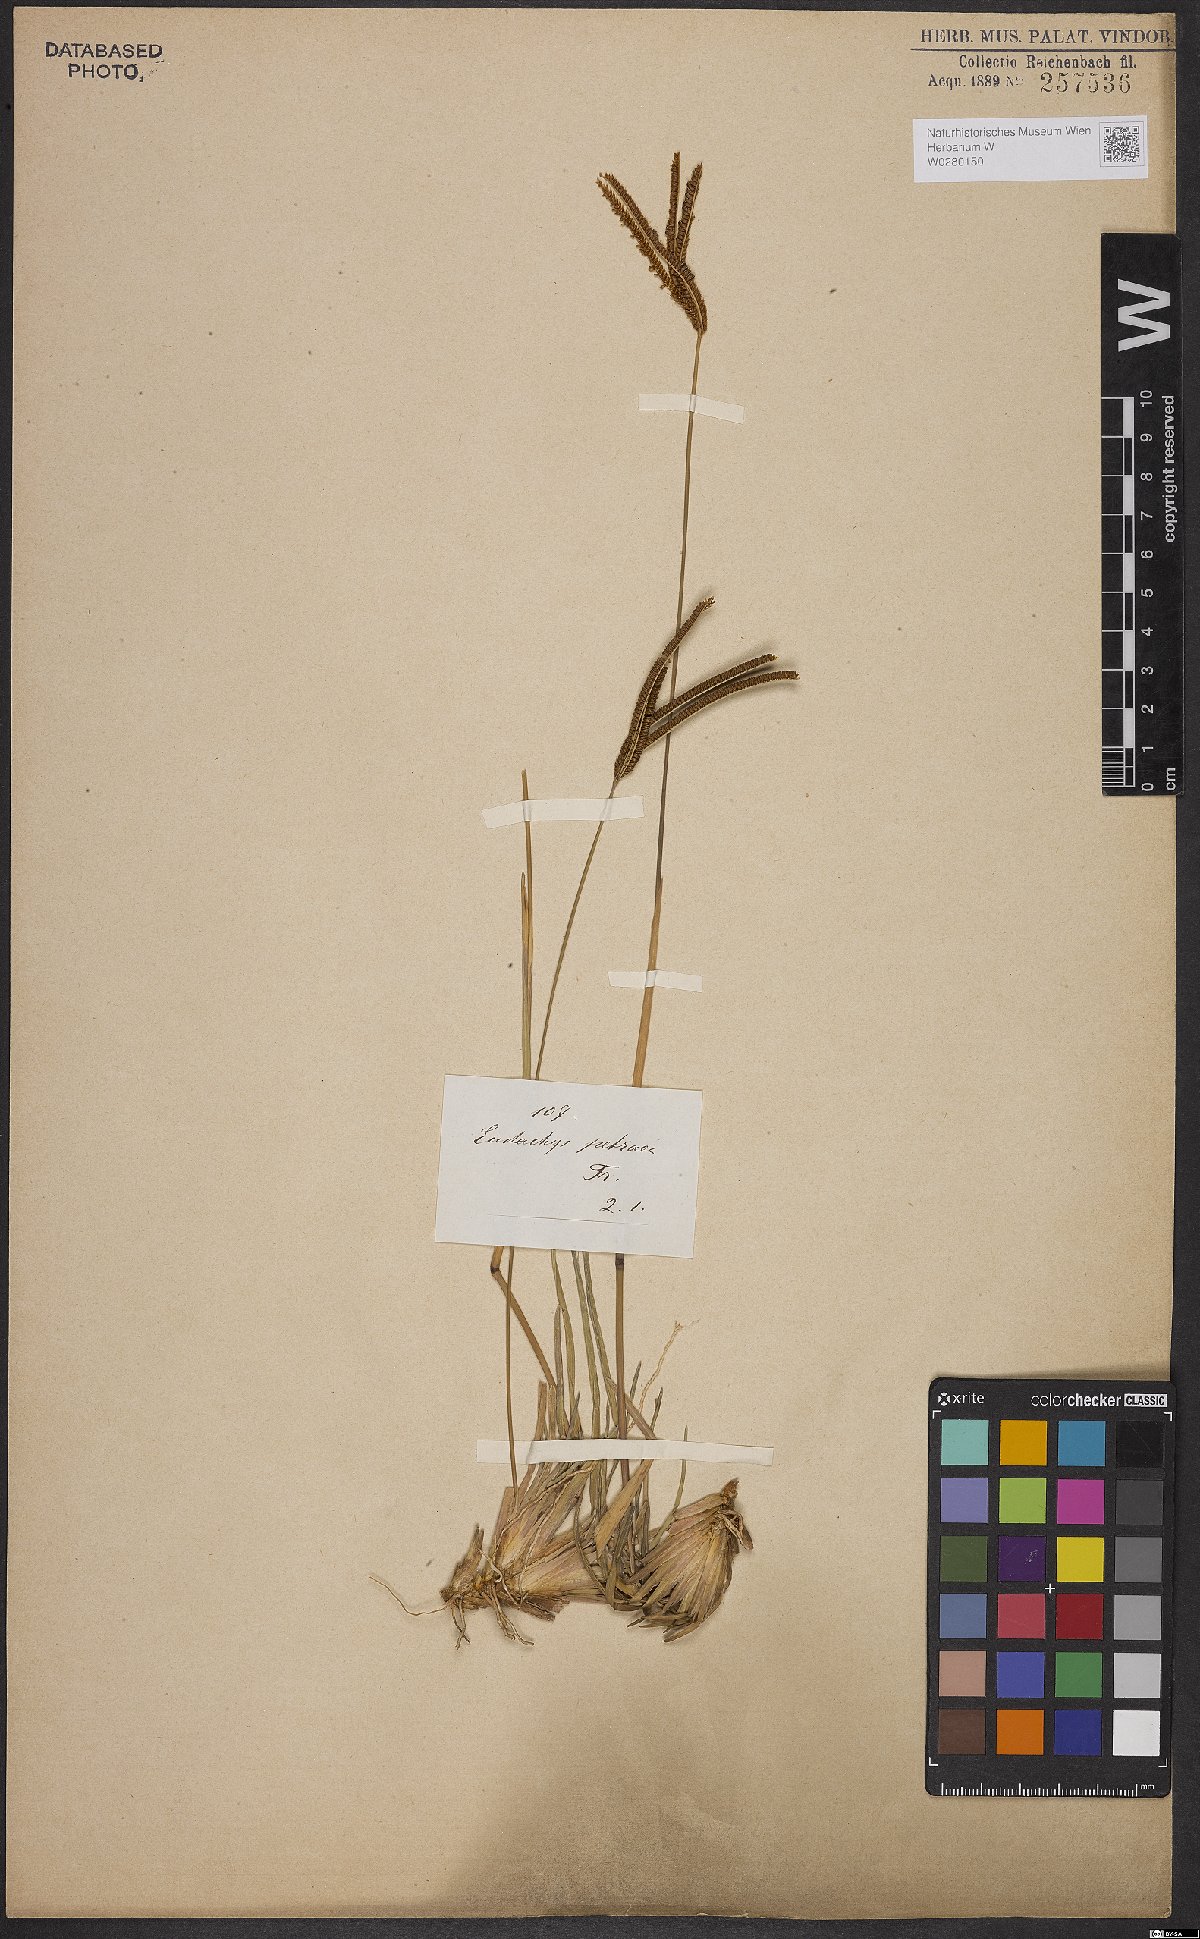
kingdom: Plantae
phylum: Tracheophyta
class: Liliopsida
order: Poales
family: Poaceae
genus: Eustachys
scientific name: Eustachys petraea
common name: Pinewoods fingergrass
